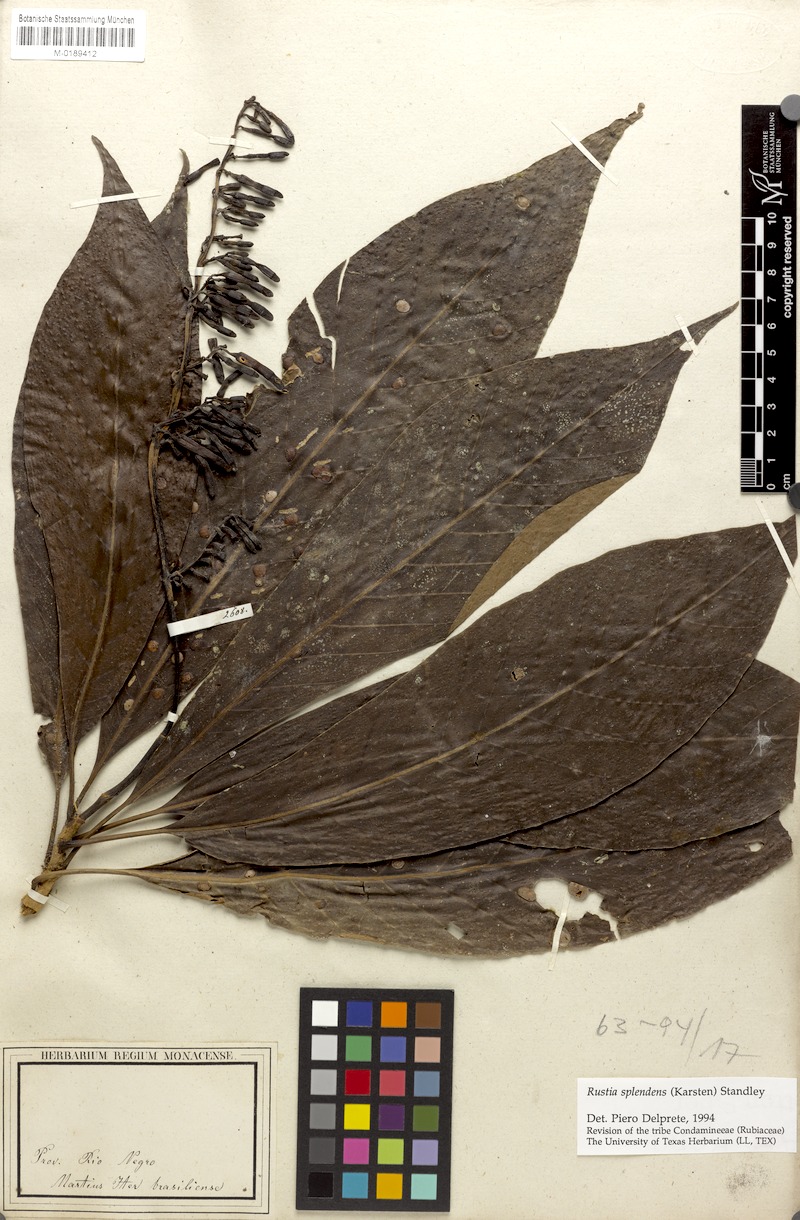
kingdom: Plantae
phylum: Tracheophyta
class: Magnoliopsida
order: Gentianales
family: Rubiaceae
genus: Rustia
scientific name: Rustia thibaudioides
